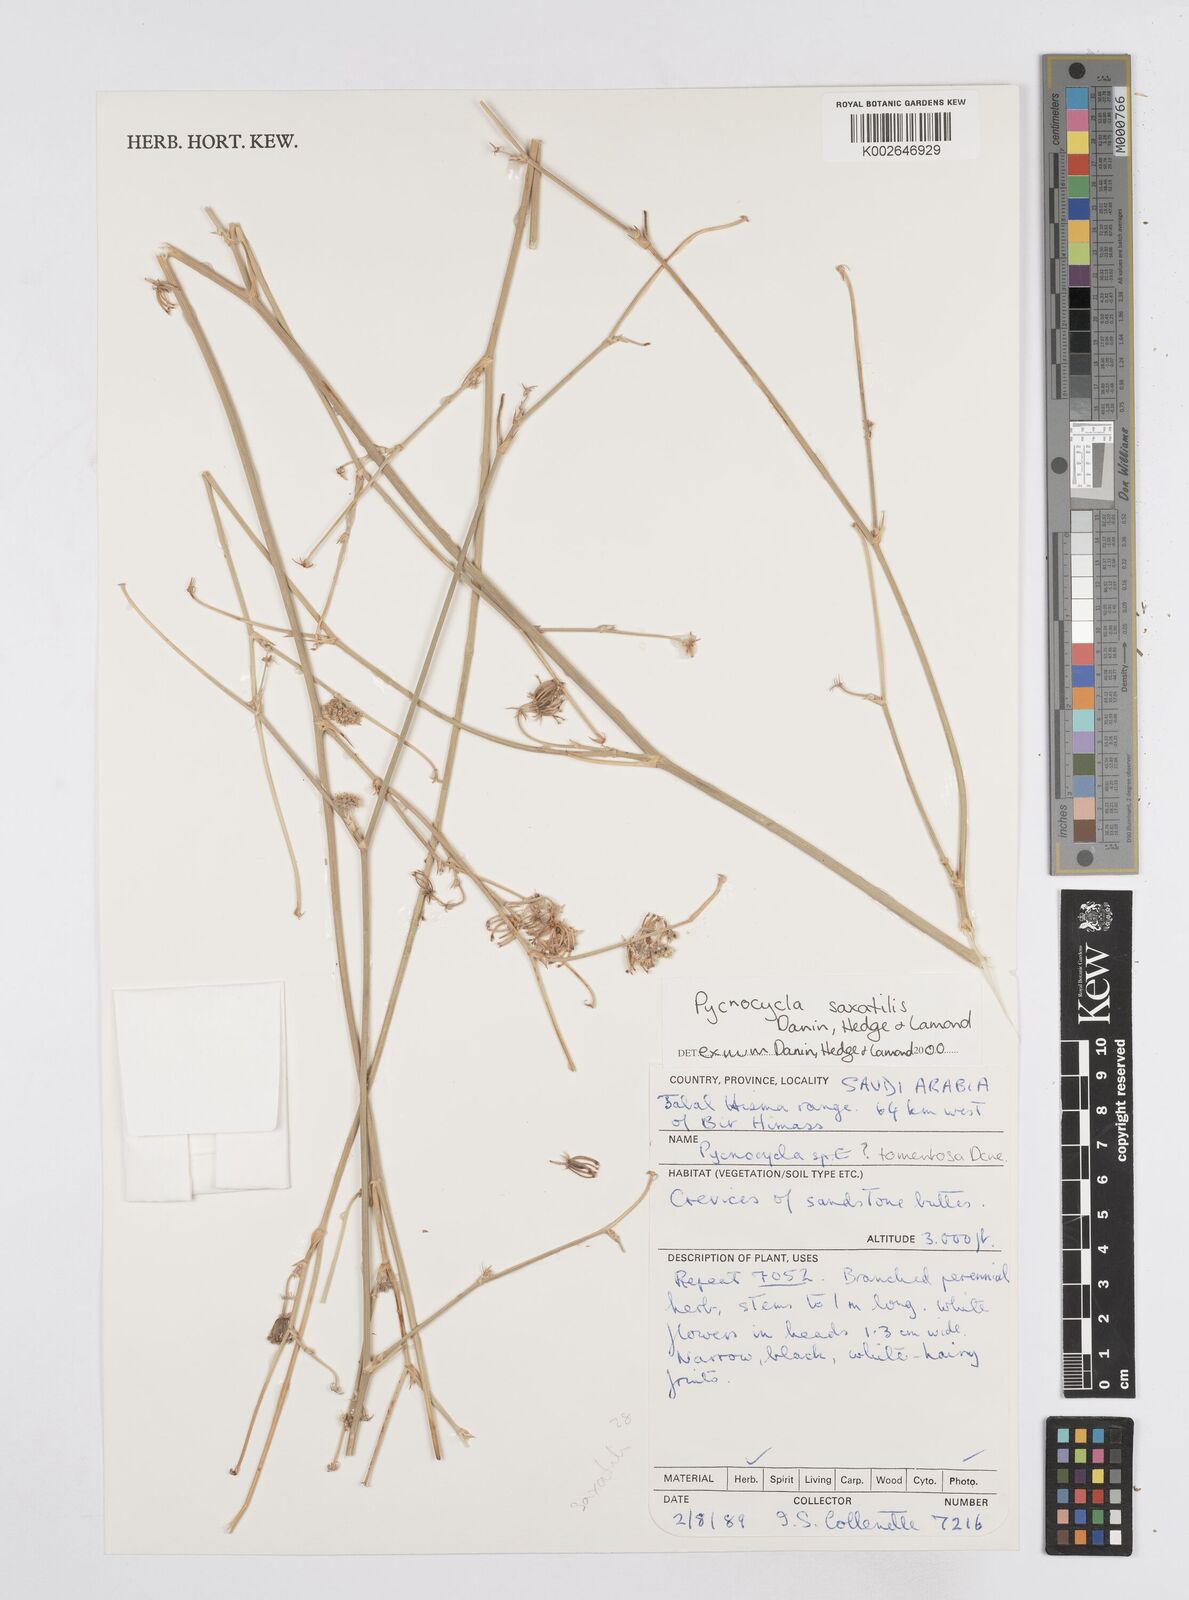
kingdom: Plantae
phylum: Tracheophyta
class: Magnoliopsida
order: Apiales
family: Apiaceae
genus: Pycnocycla
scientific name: Pycnocycla saxatilis
